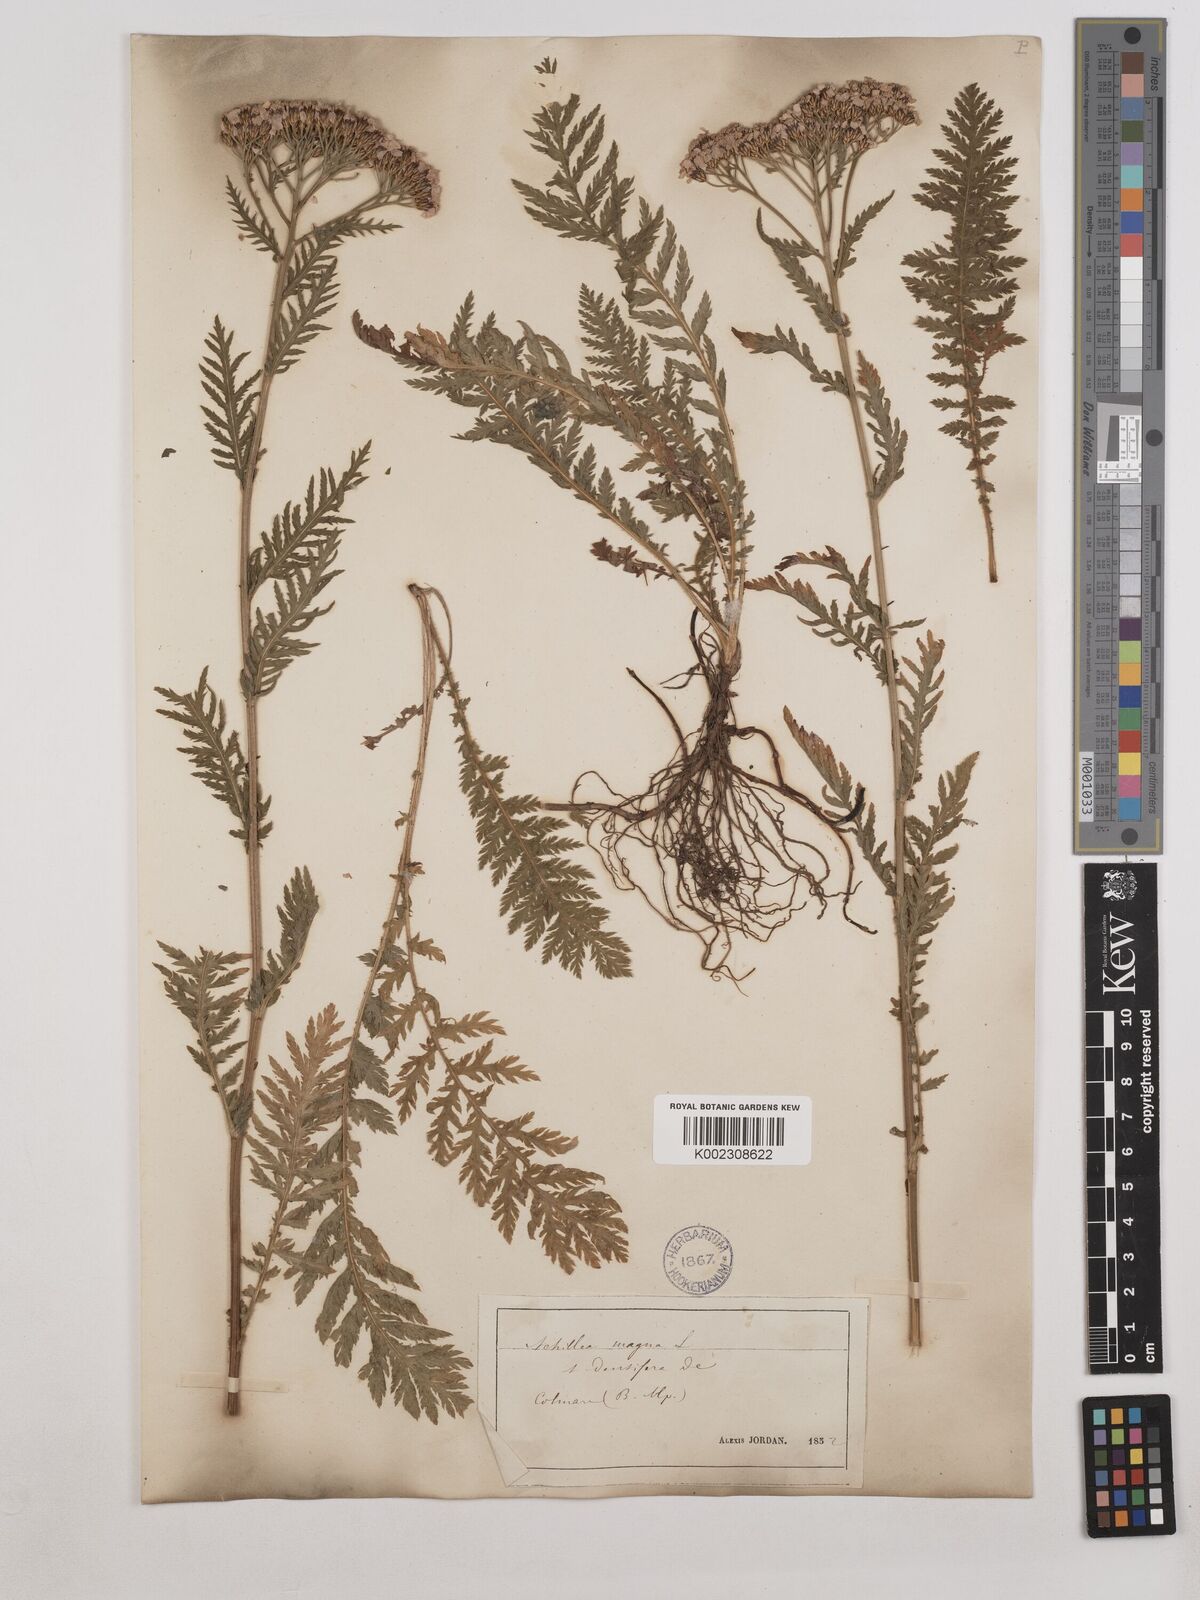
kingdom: Plantae
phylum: Tracheophyta
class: Magnoliopsida
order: Asterales
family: Asteraceae
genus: Achillea
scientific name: Achillea distans
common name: Tall yarrow
